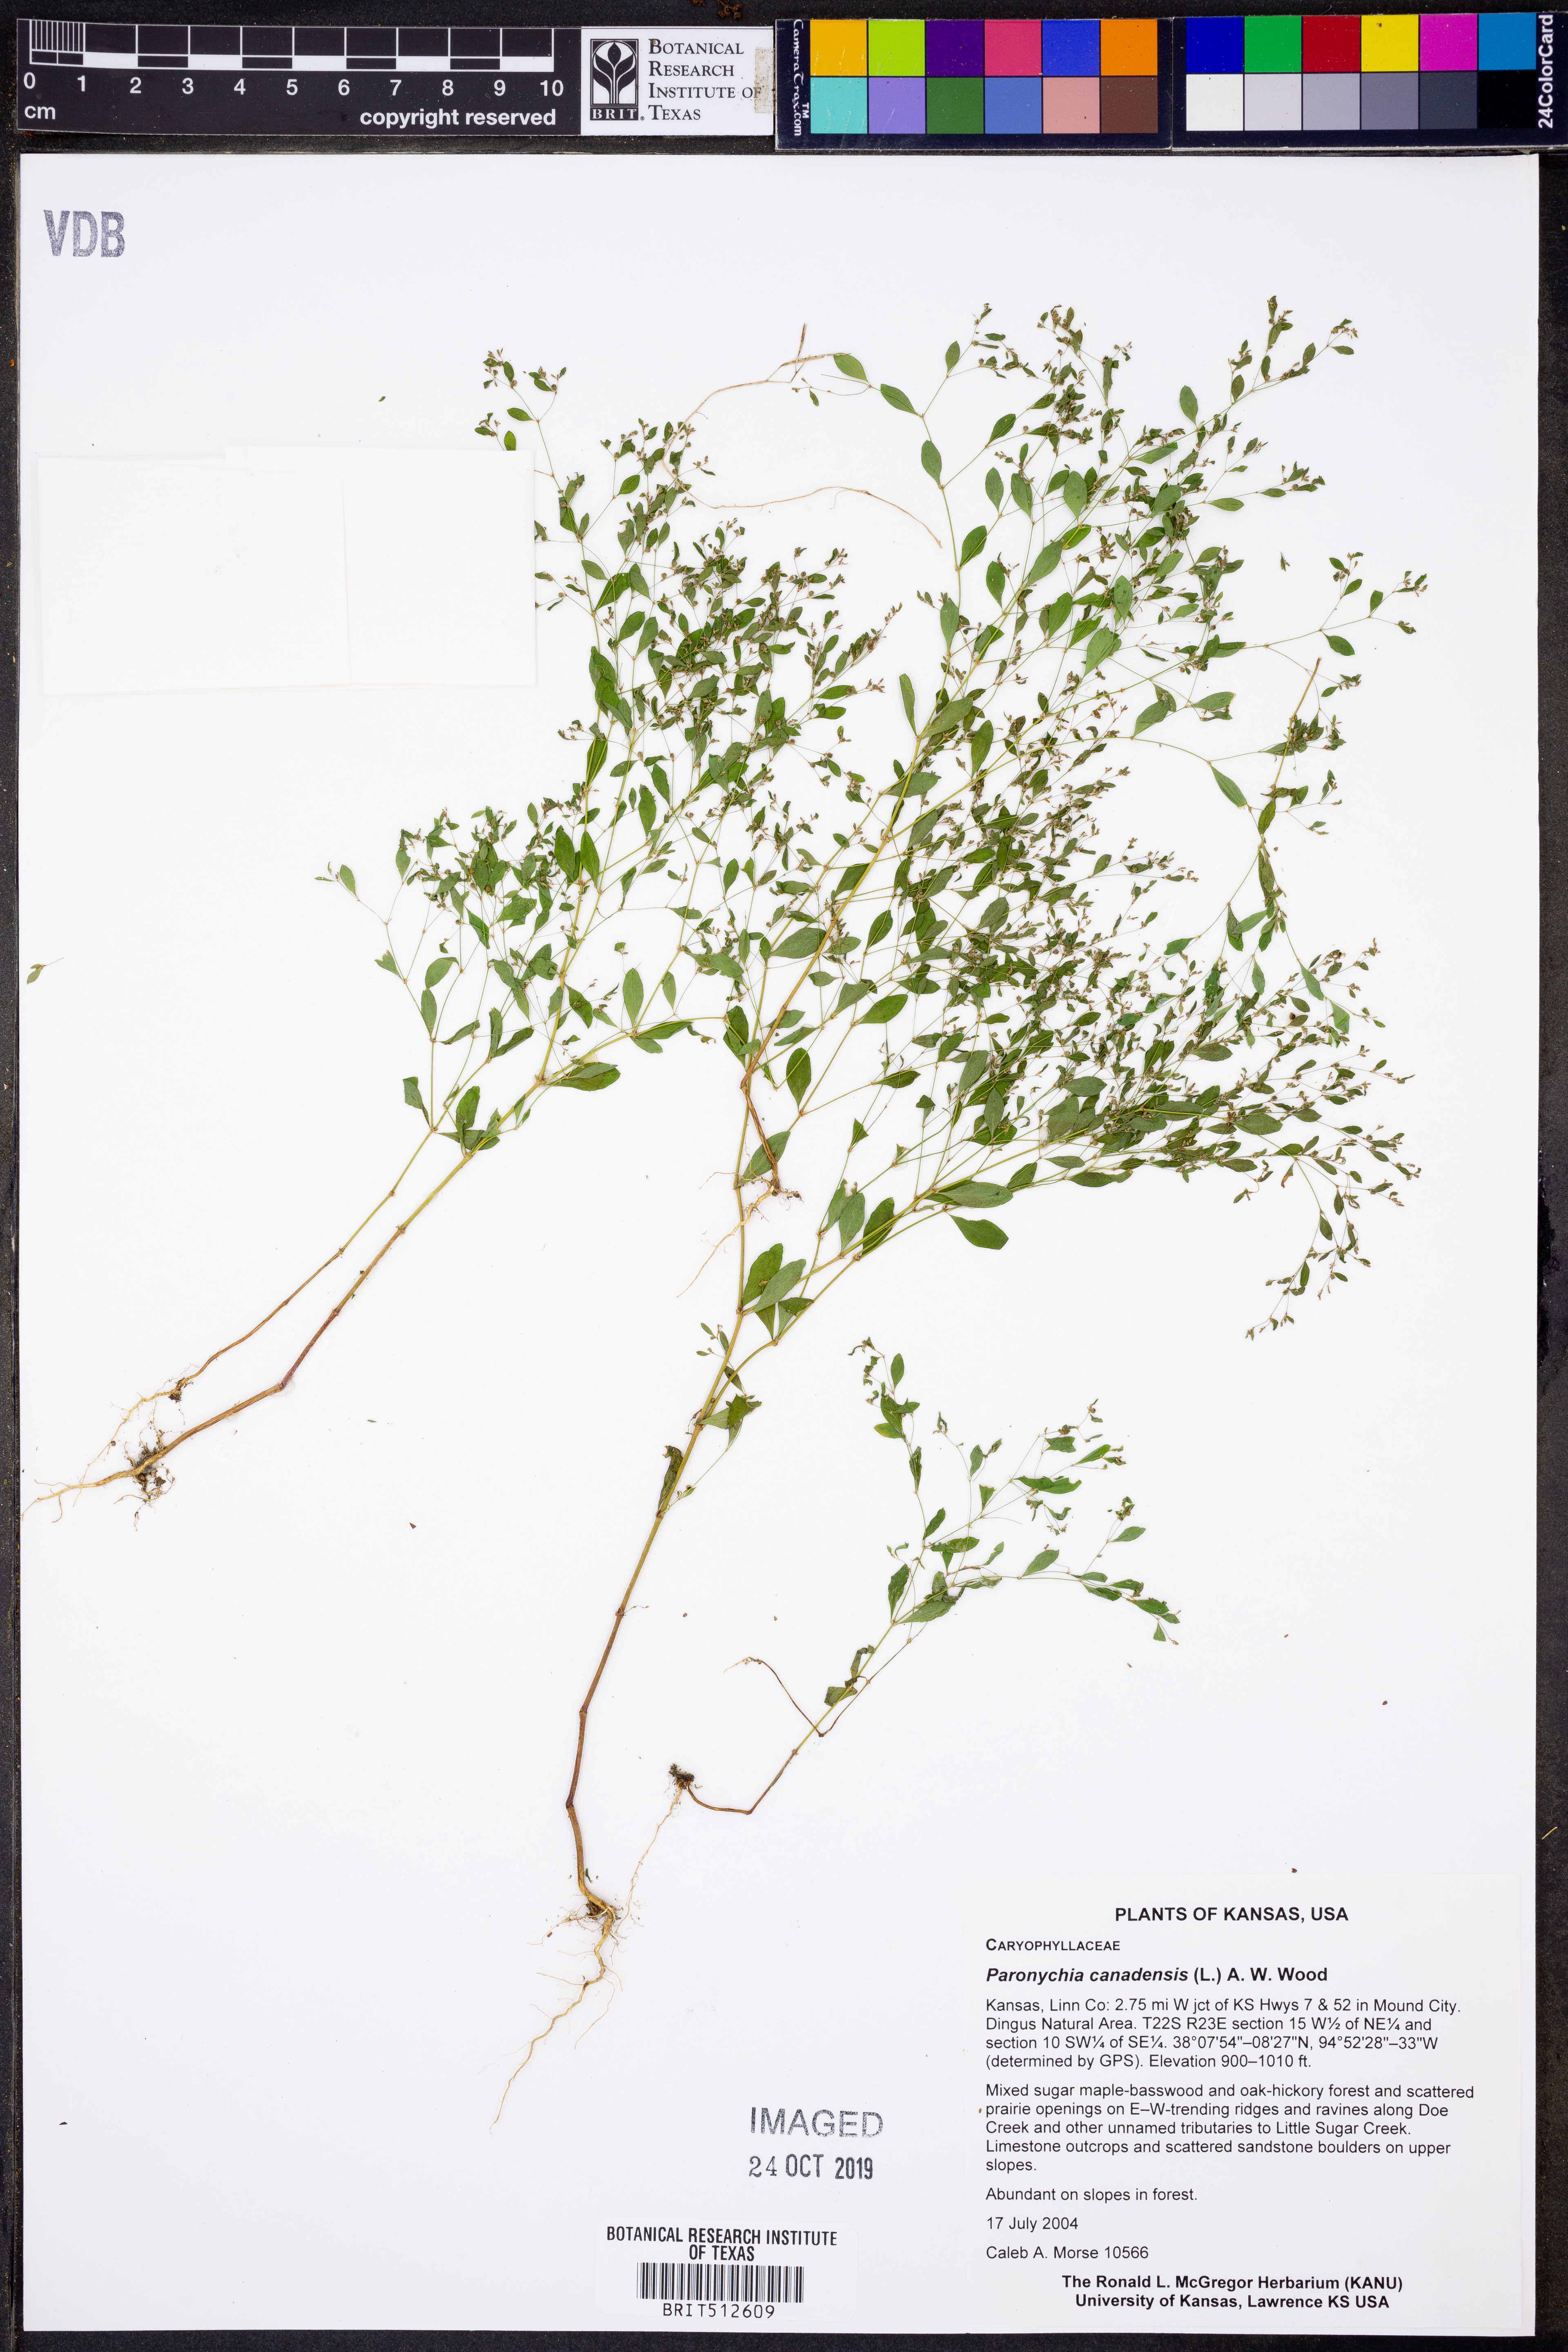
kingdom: Plantae
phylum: Tracheophyta
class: Magnoliopsida
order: Caryophyllales
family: Caryophyllaceae
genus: Paronychia
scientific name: Paronychia canadensis
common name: Canada forked nailwort
